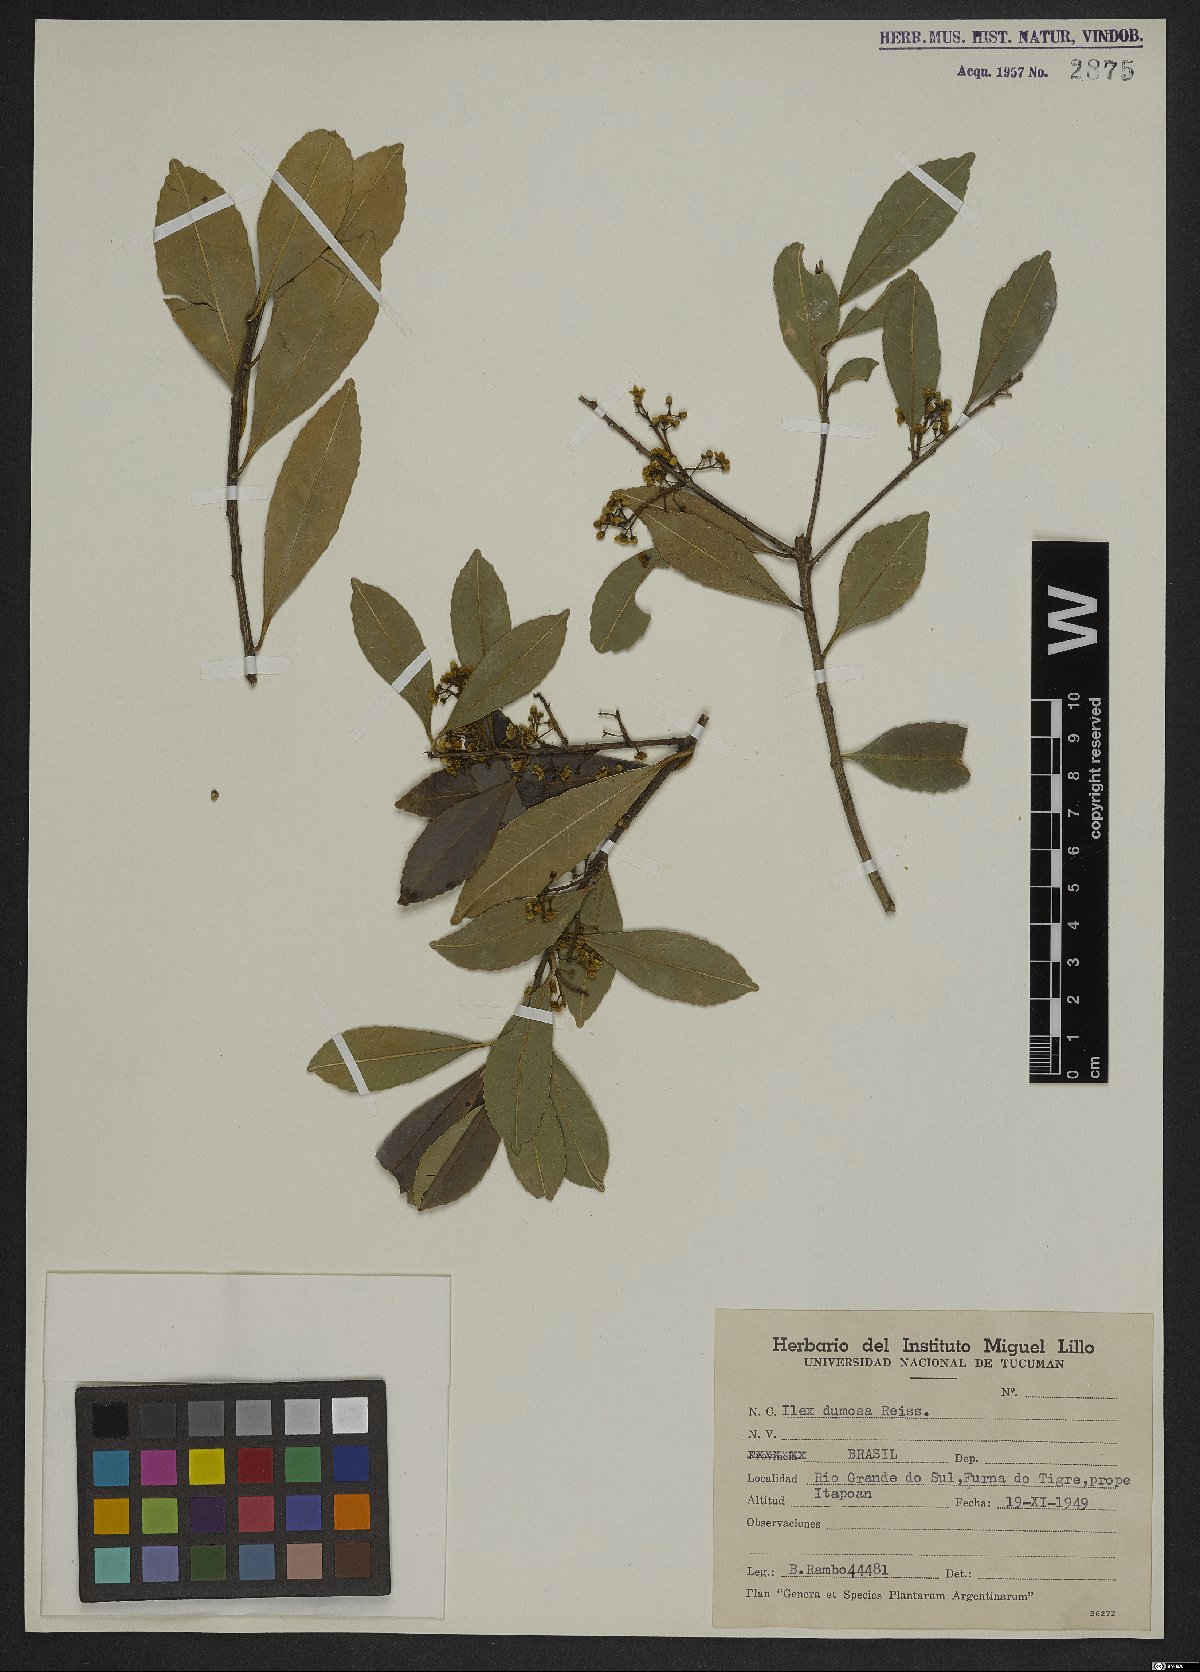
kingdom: Plantae
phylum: Tracheophyta
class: Magnoliopsida
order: Aquifoliales
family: Aquifoliaceae
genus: Ilex
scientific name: Ilex dumosa
